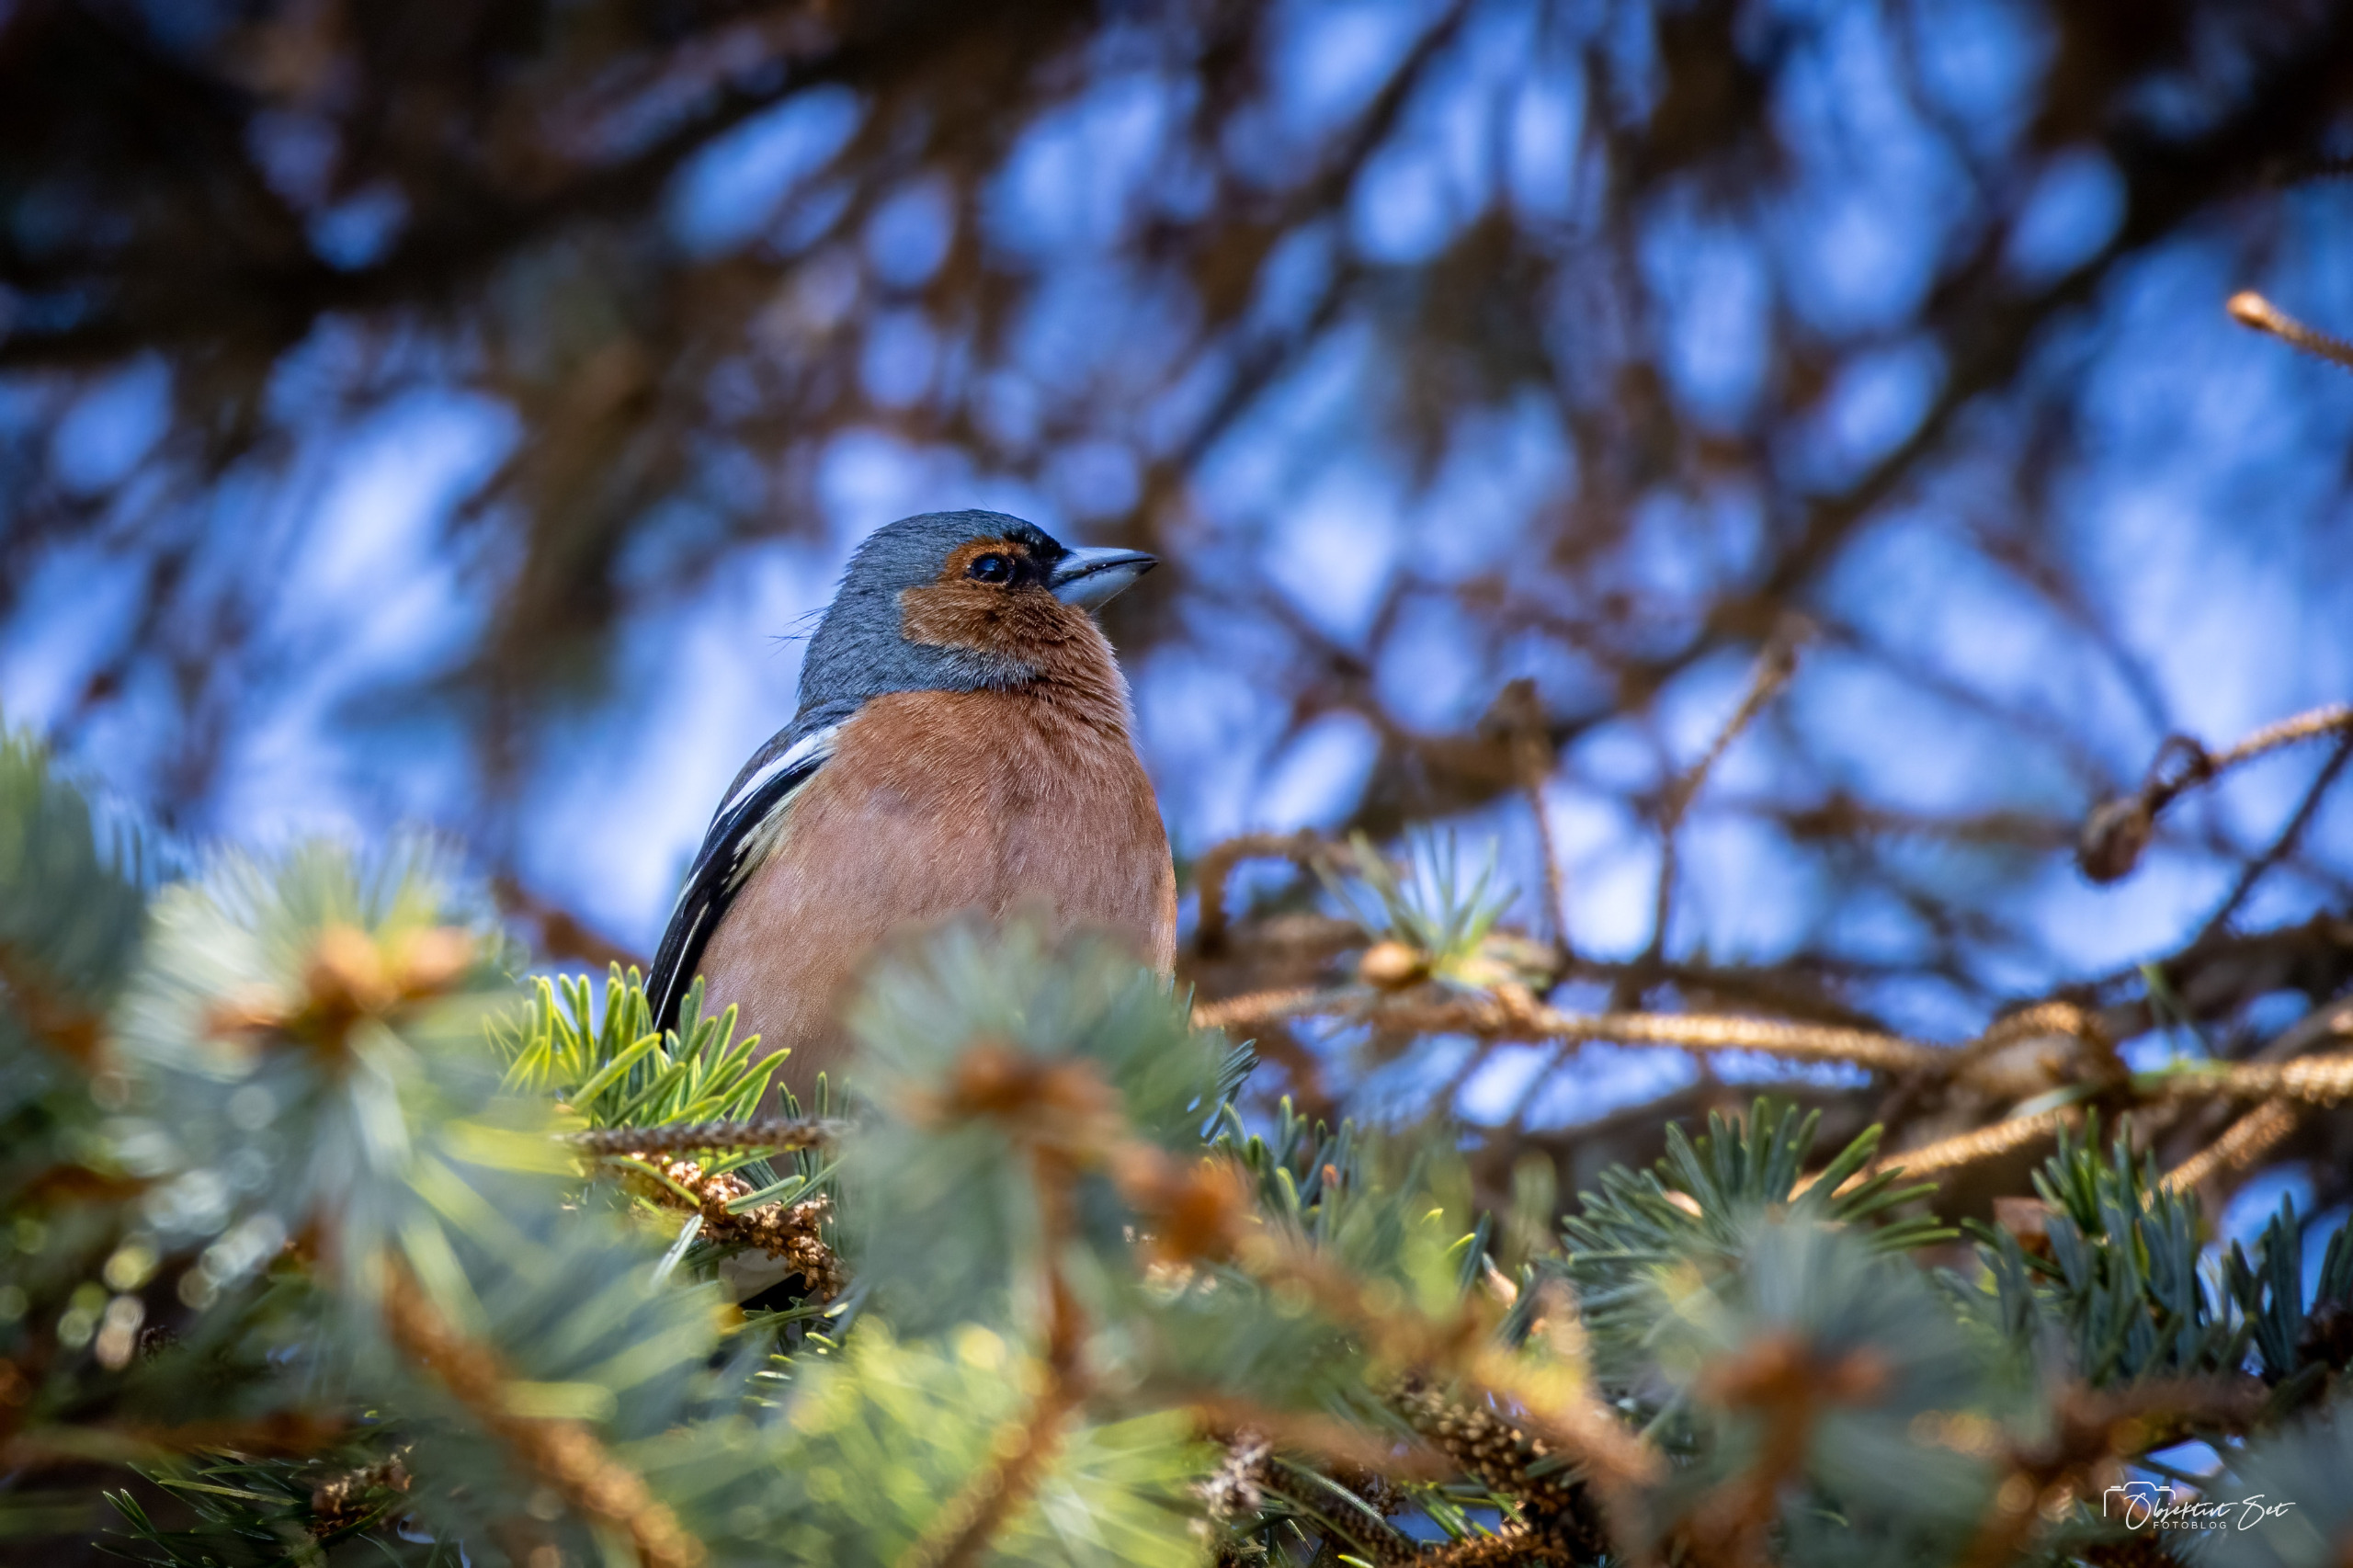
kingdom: Animalia
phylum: Chordata
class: Aves
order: Passeriformes
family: Fringillidae
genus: Fringilla
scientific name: Fringilla coelebs
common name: Bogfinke
